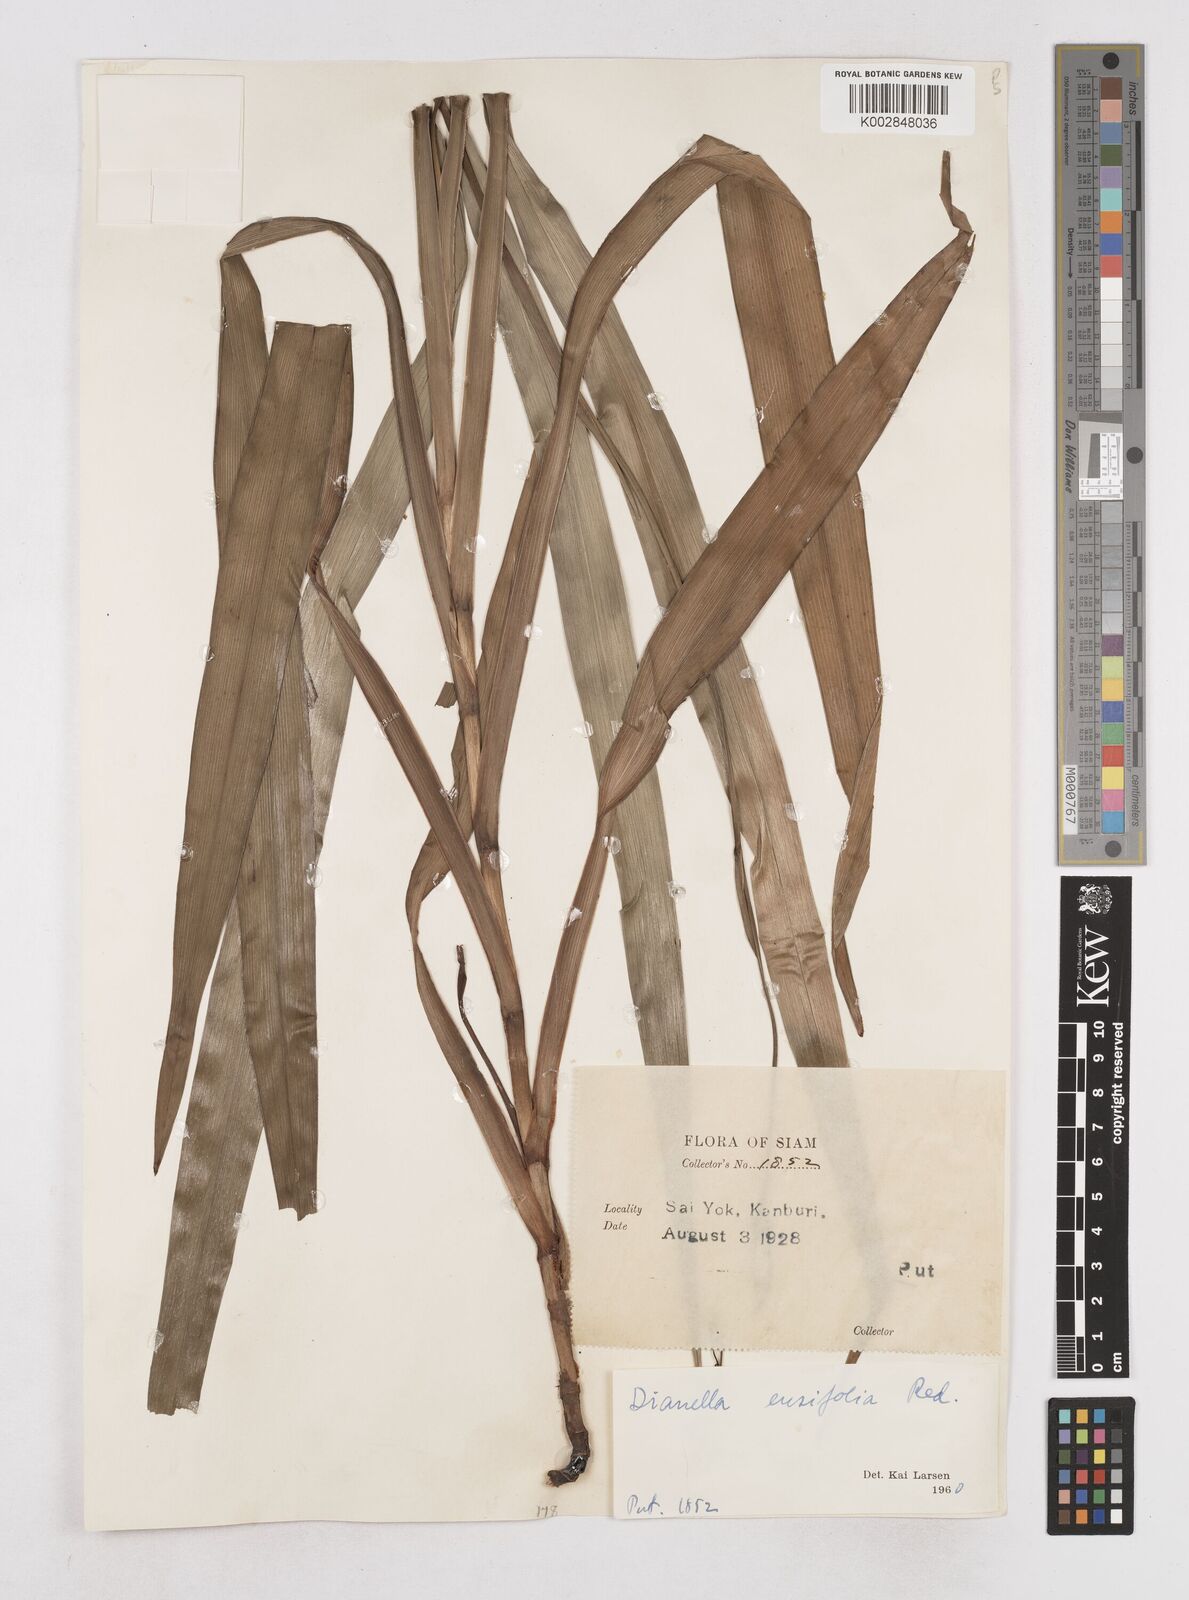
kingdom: Plantae
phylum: Tracheophyta
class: Liliopsida
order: Asparagales
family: Asphodelaceae
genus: Dianella
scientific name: Dianella ensifolia
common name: New zealand lilyplant
